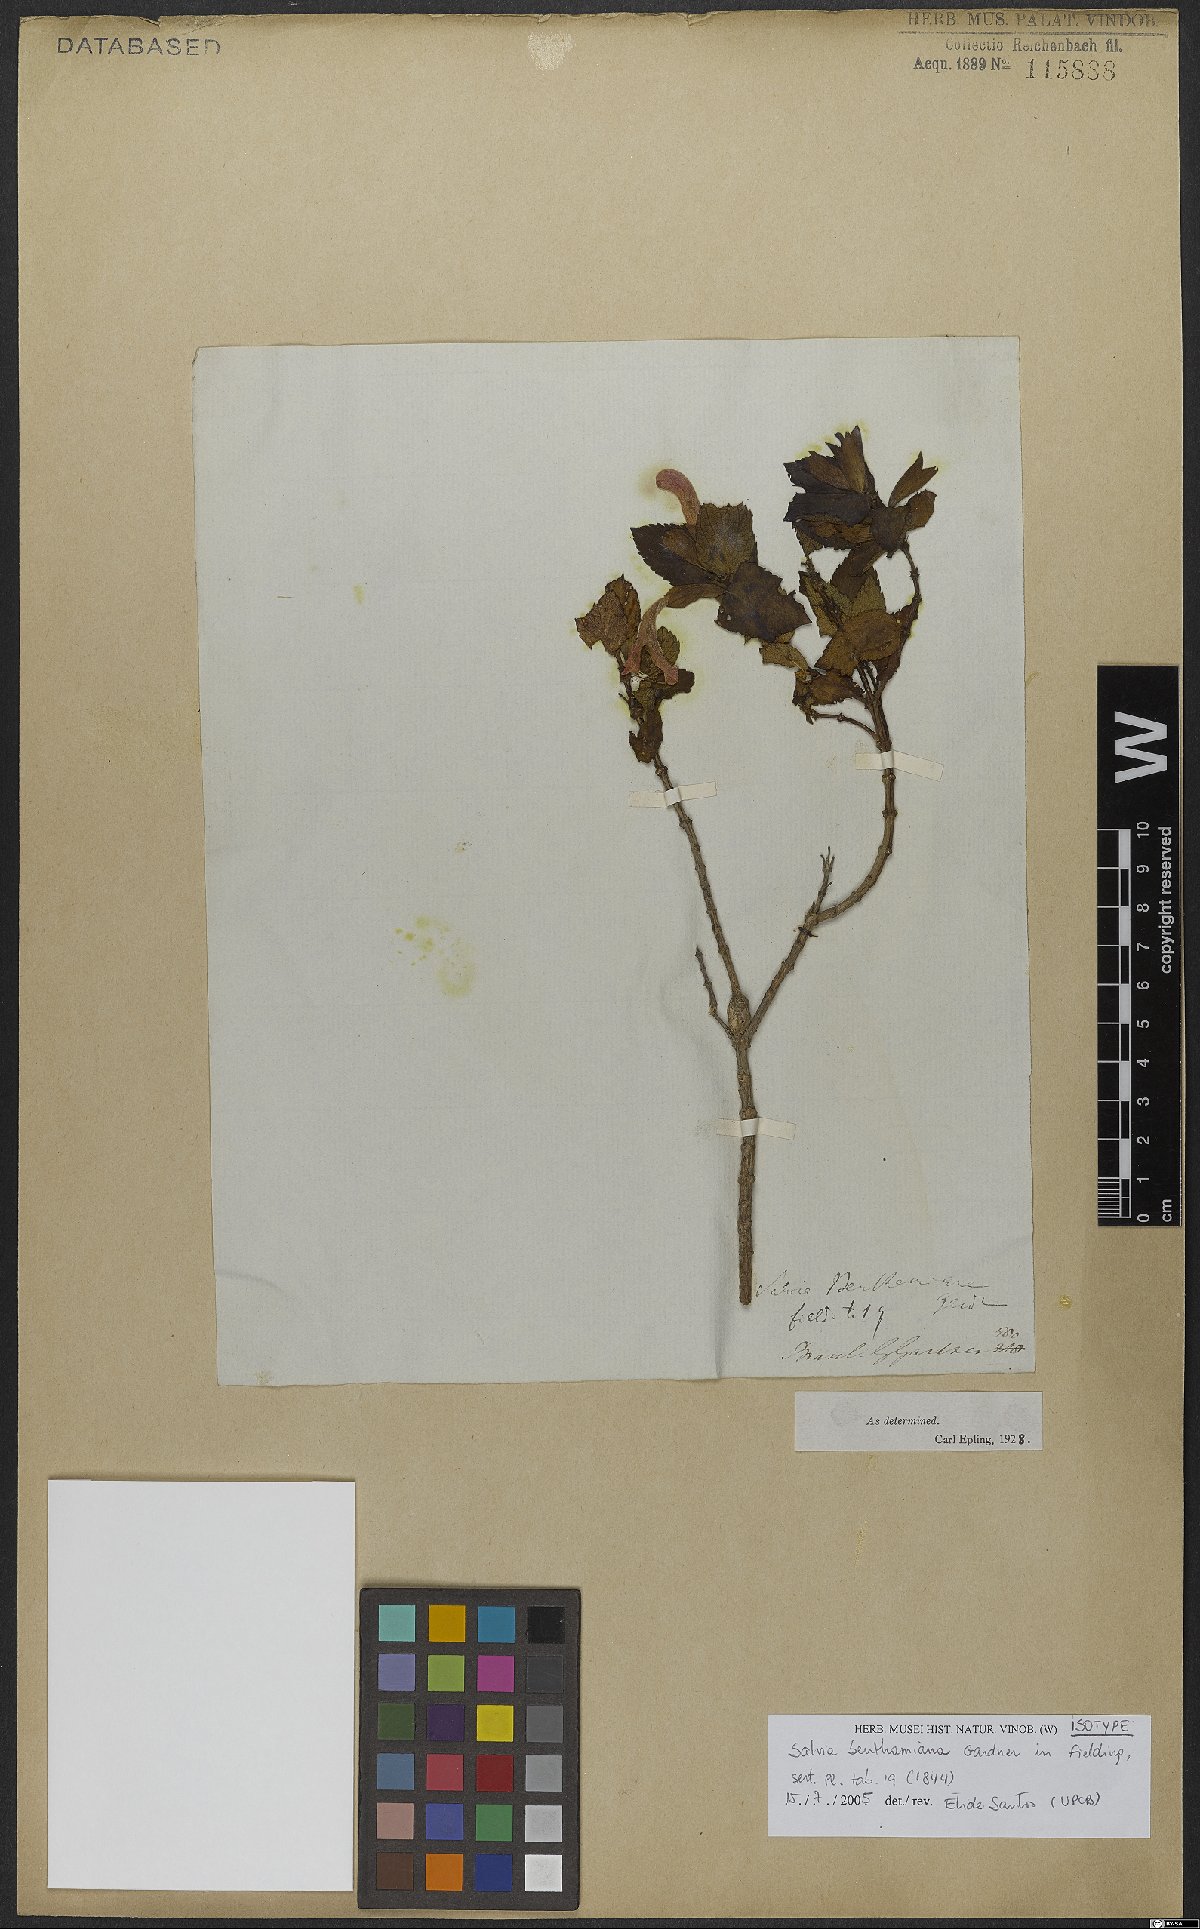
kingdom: Plantae
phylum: Tracheophyta
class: Magnoliopsida
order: Lamiales
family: Lamiaceae
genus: Salvia
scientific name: Salvia benthamiana
